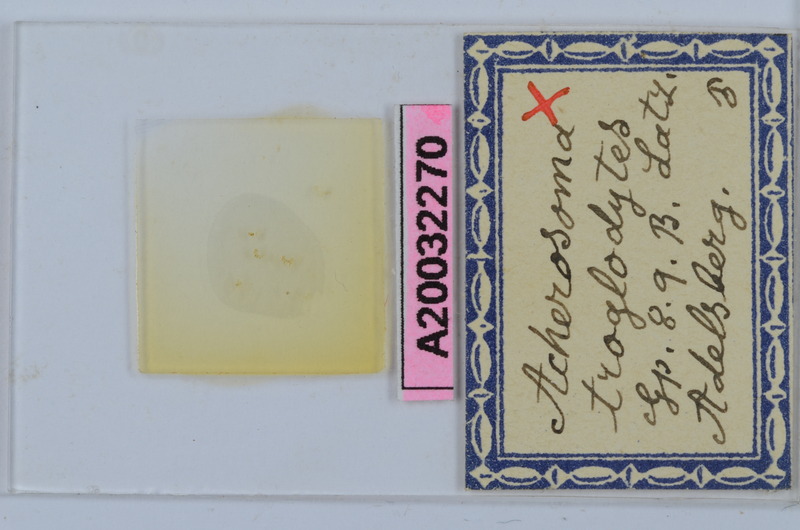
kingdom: Animalia
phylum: Arthropoda
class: Diplopoda
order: Chordeumatida
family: Anthogonidae
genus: Haasia
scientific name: Haasia troglodytes
